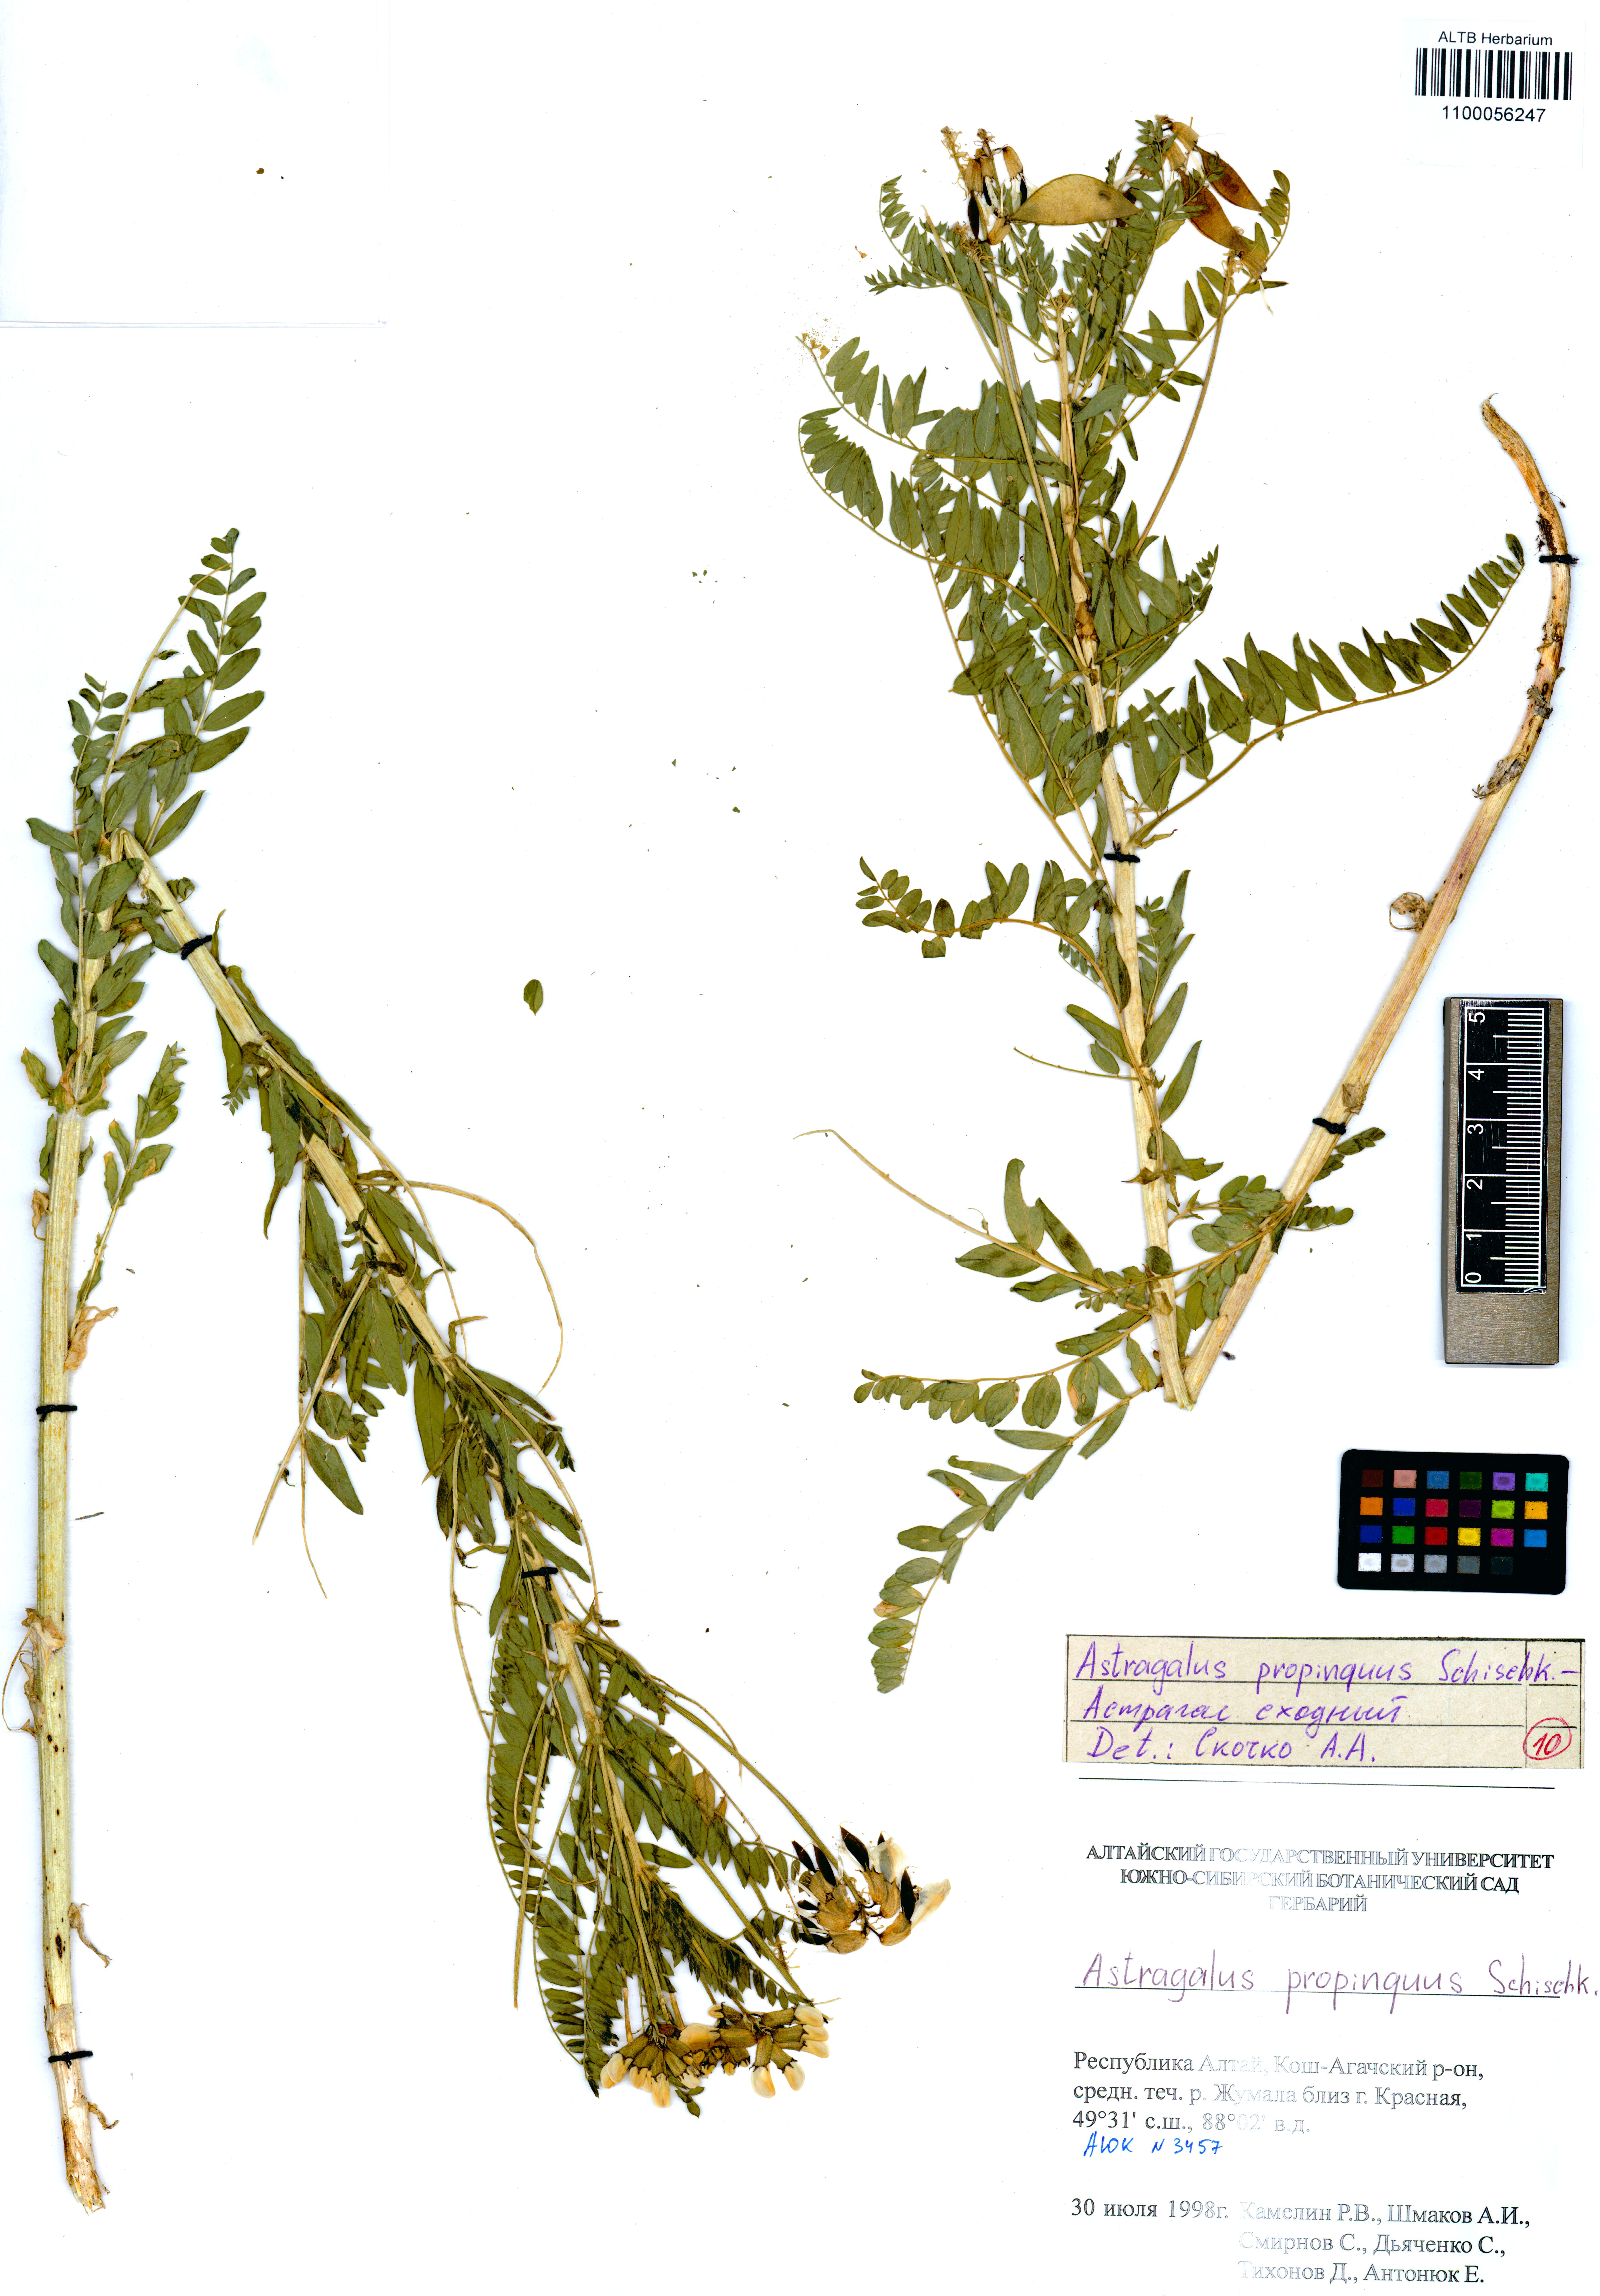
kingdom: Plantae
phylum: Tracheophyta
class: Magnoliopsida
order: Fabales
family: Fabaceae
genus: Astragalus
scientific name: Astragalus mongholicus
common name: Membranous milk-vetch
